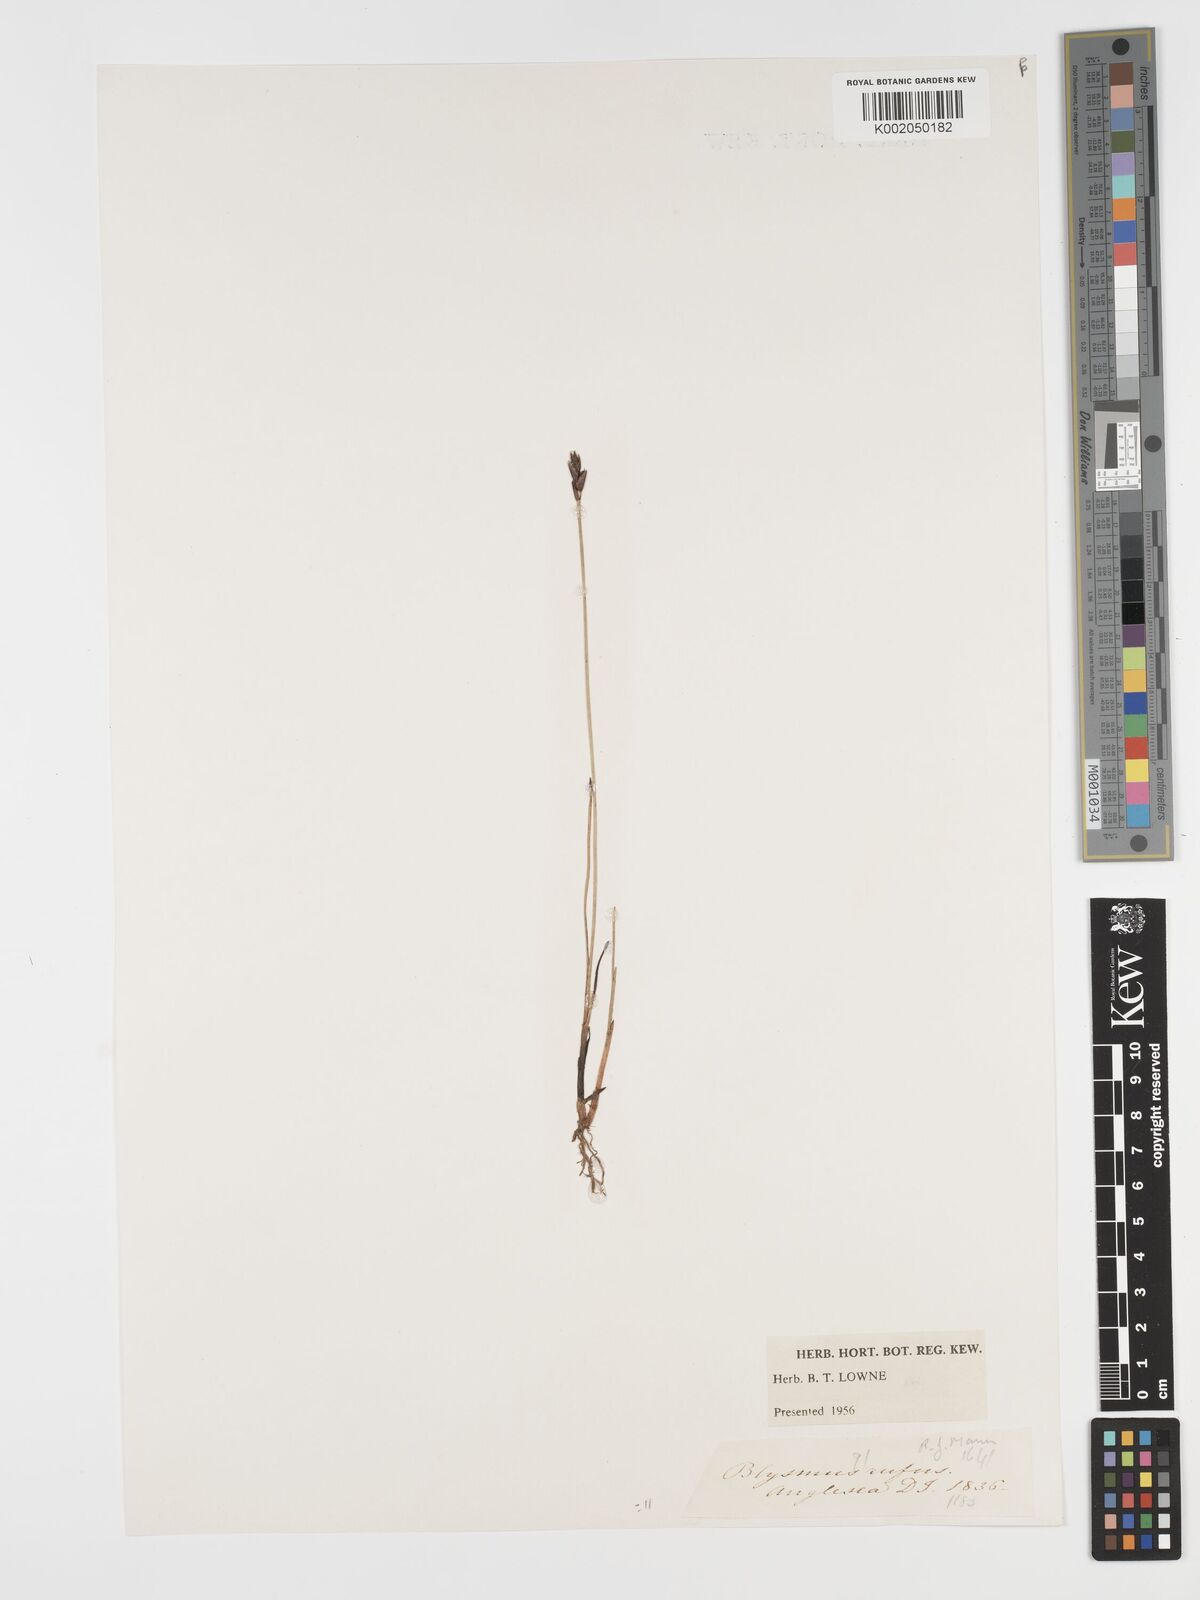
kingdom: Plantae
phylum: Tracheophyta
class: Liliopsida
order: Poales
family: Cyperaceae
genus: Blysmus
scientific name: Blysmus rufus
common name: Saltmarsh flat-sedge
